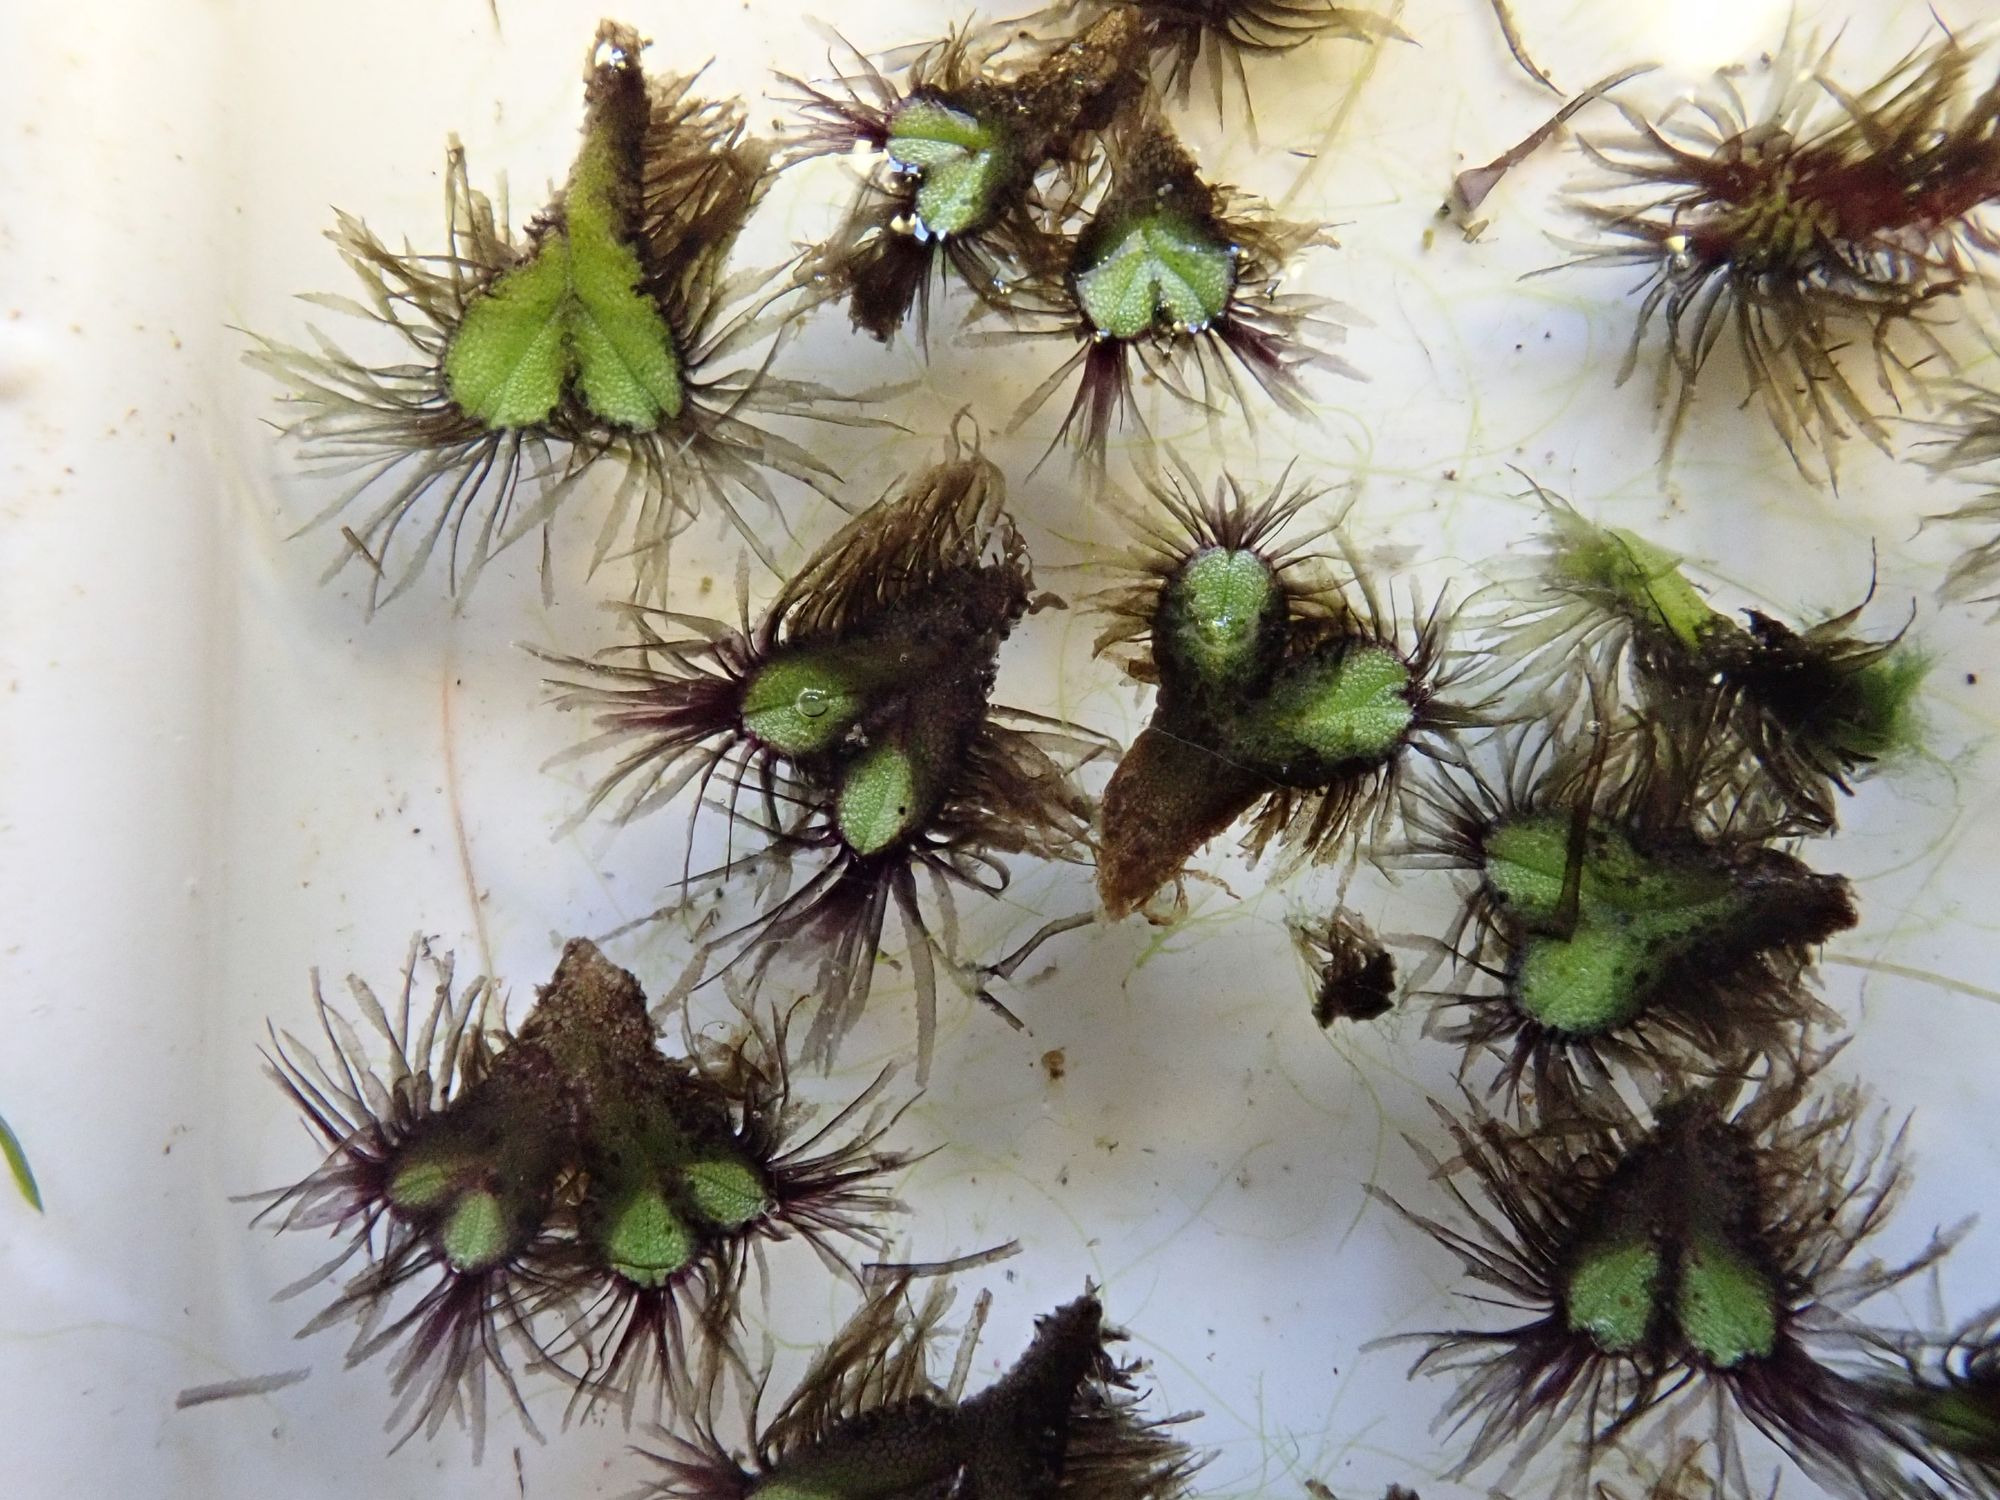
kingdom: Plantae
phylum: Marchantiophyta
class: Marchantiopsida
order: Marchantiales
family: Ricciaceae
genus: Ricciocarpos
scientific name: Ricciocarpos natans
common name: Flydende skælløv
